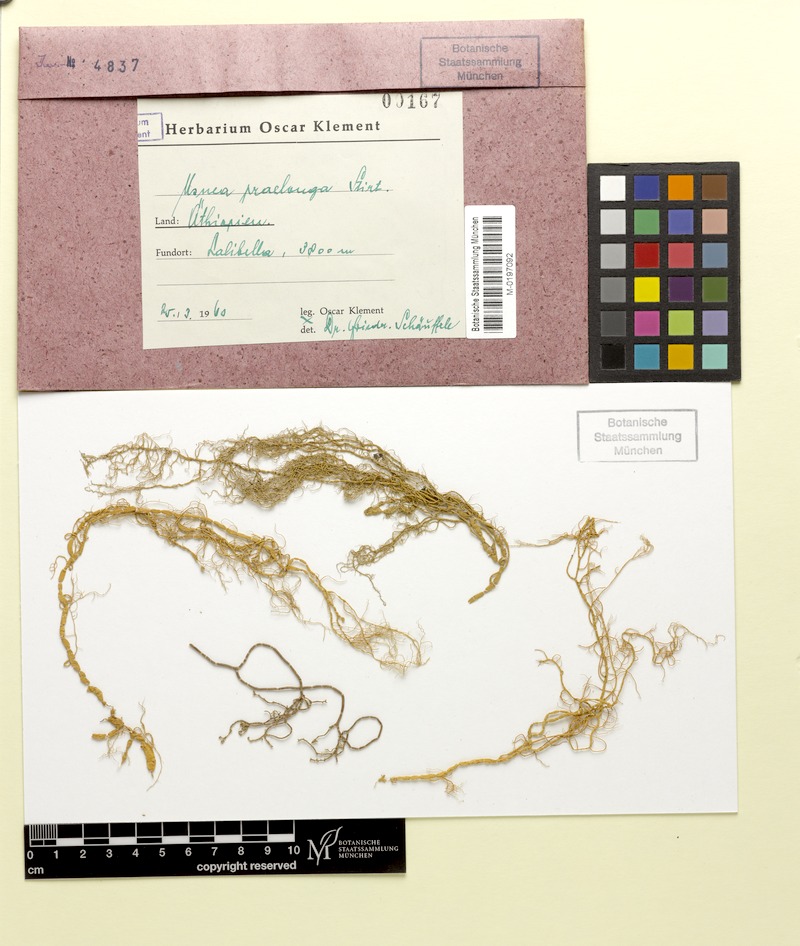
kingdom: Fungi
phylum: Ascomycota
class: Lecanoromycetes
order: Lecanorales
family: Parmeliaceae
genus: Usnea
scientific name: Usnea
